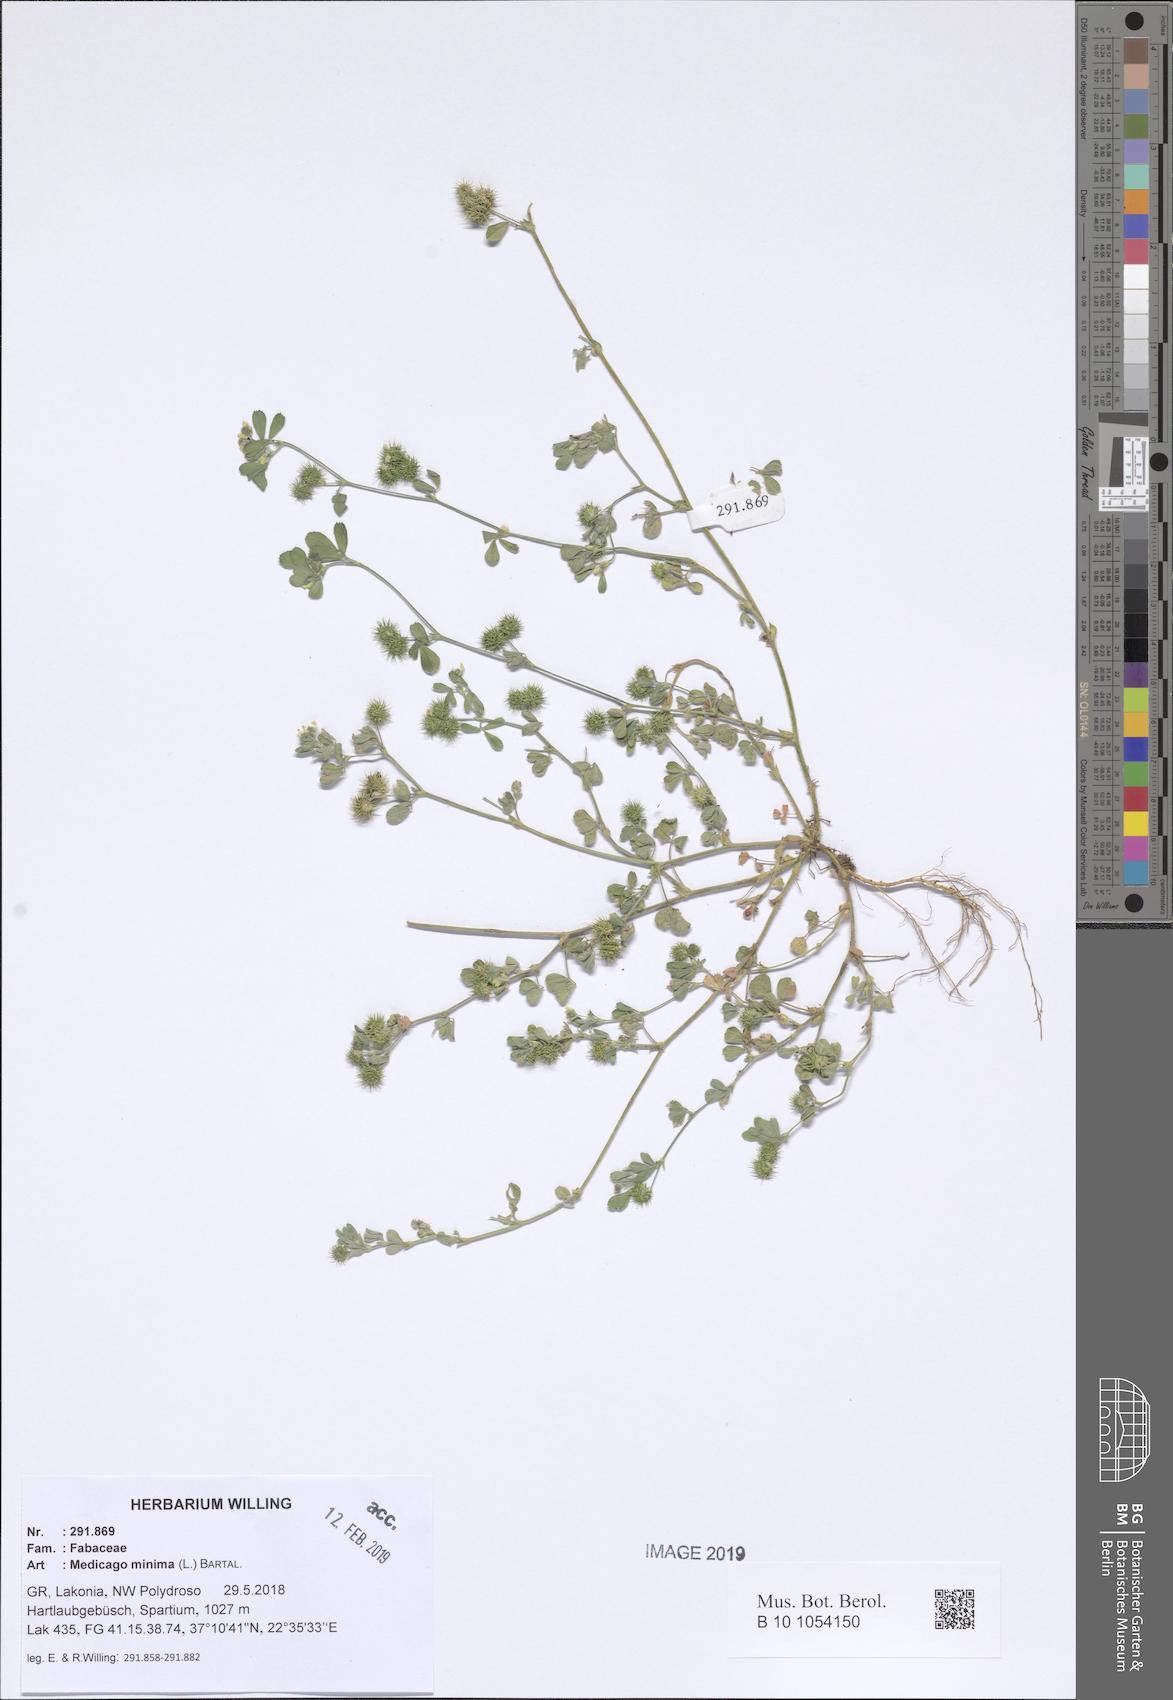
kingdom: Plantae
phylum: Tracheophyta
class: Magnoliopsida
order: Fabales
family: Fabaceae
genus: Medicago
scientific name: Medicago minima
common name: Little bur-clover
